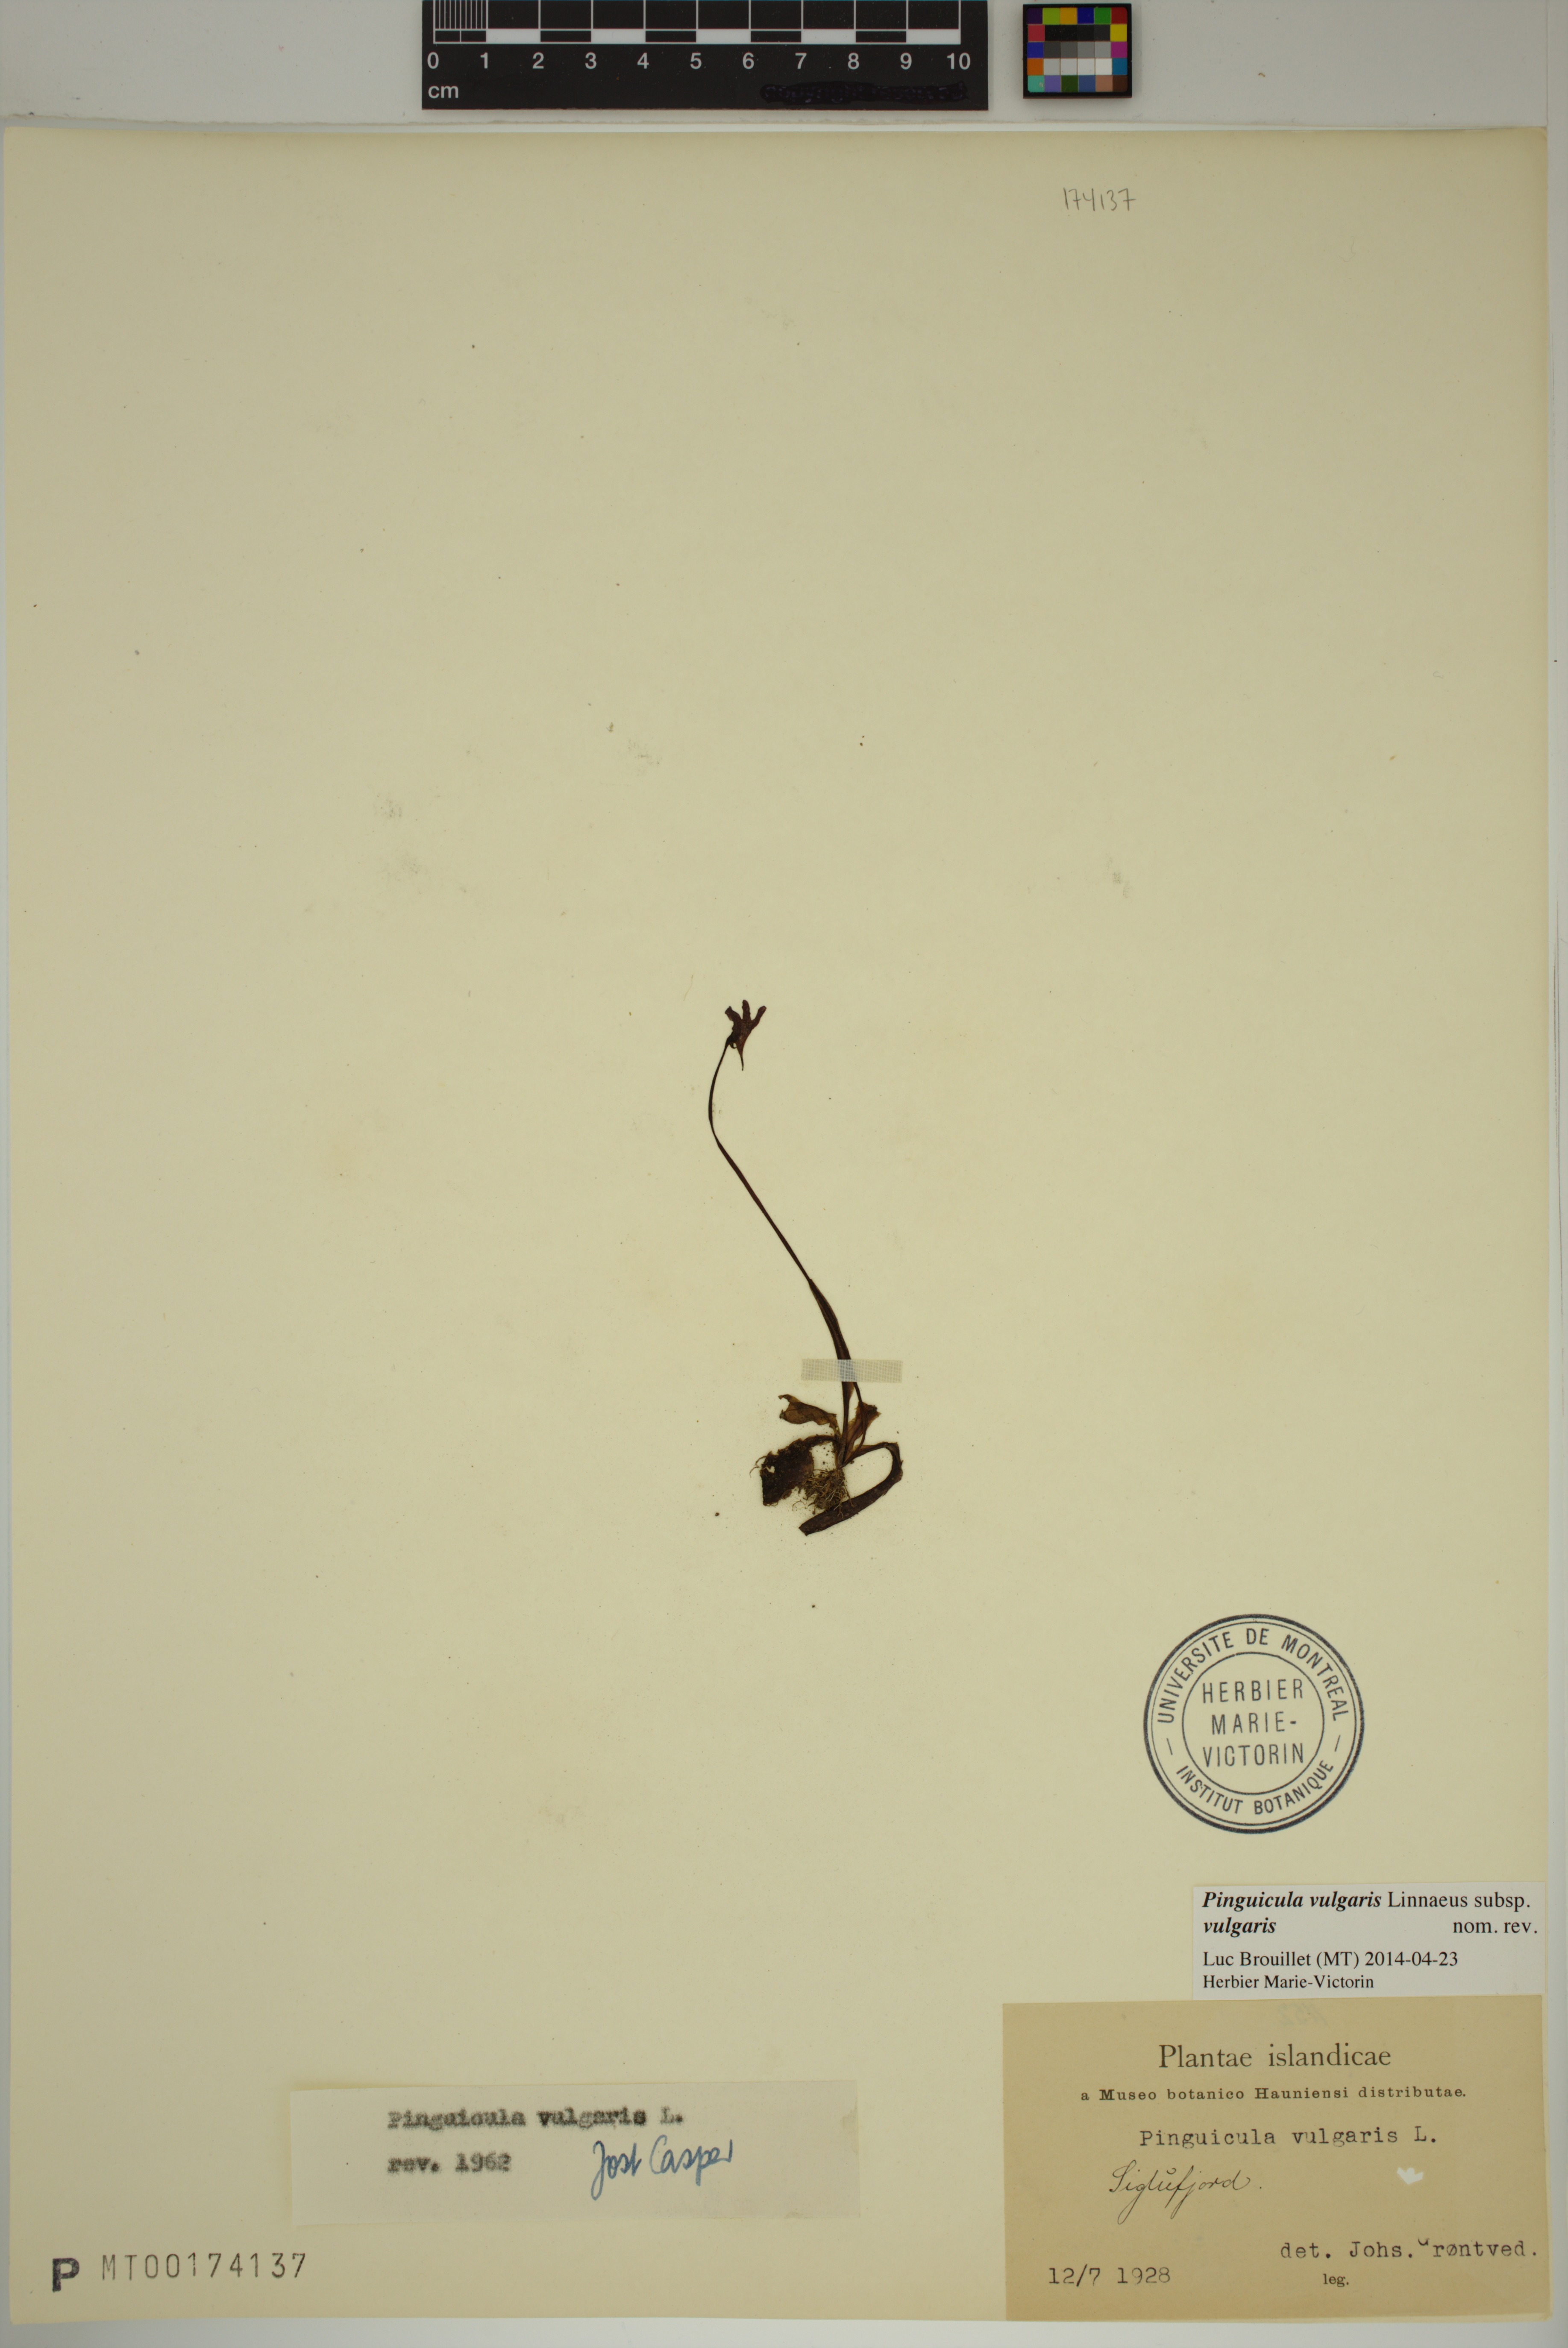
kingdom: Plantae
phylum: Tracheophyta
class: Magnoliopsida
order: Lamiales
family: Lentibulariaceae
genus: Pinguicula
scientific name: Pinguicula vulgaris
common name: Common butterwort
